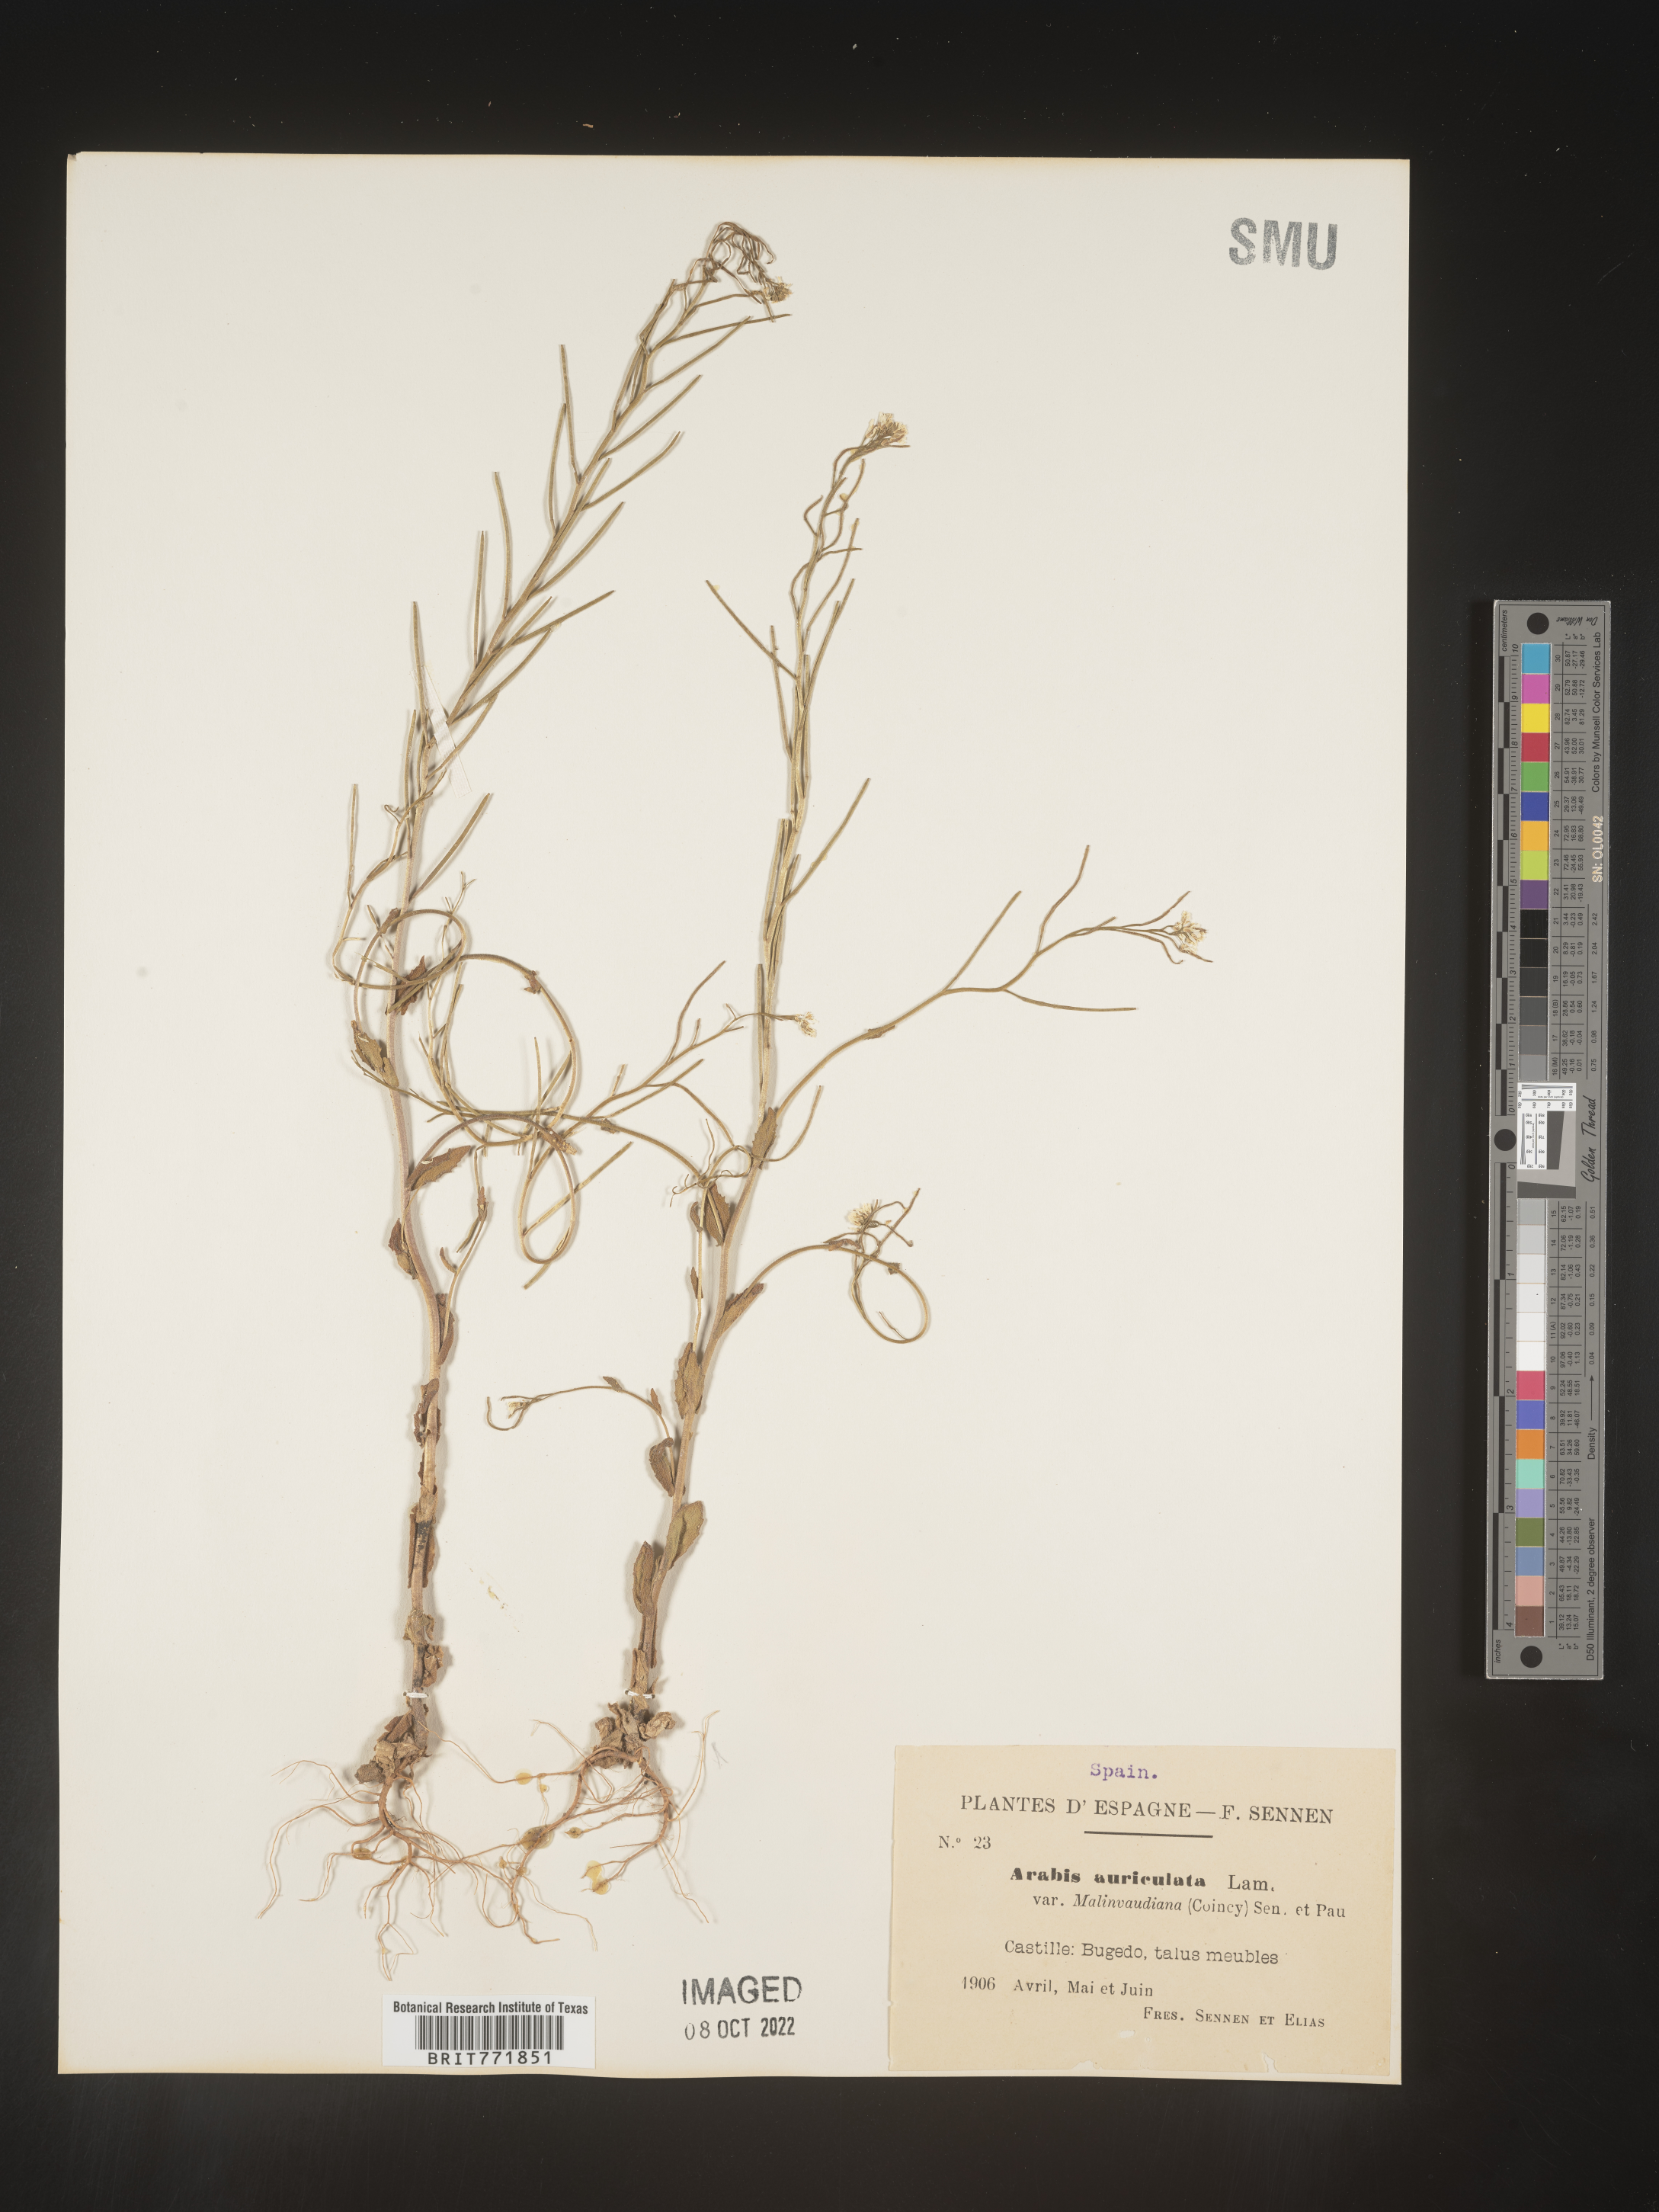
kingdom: Plantae
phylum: Tracheophyta
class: Magnoliopsida
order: Brassicales
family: Brassicaceae
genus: Arabis
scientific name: Arabis
